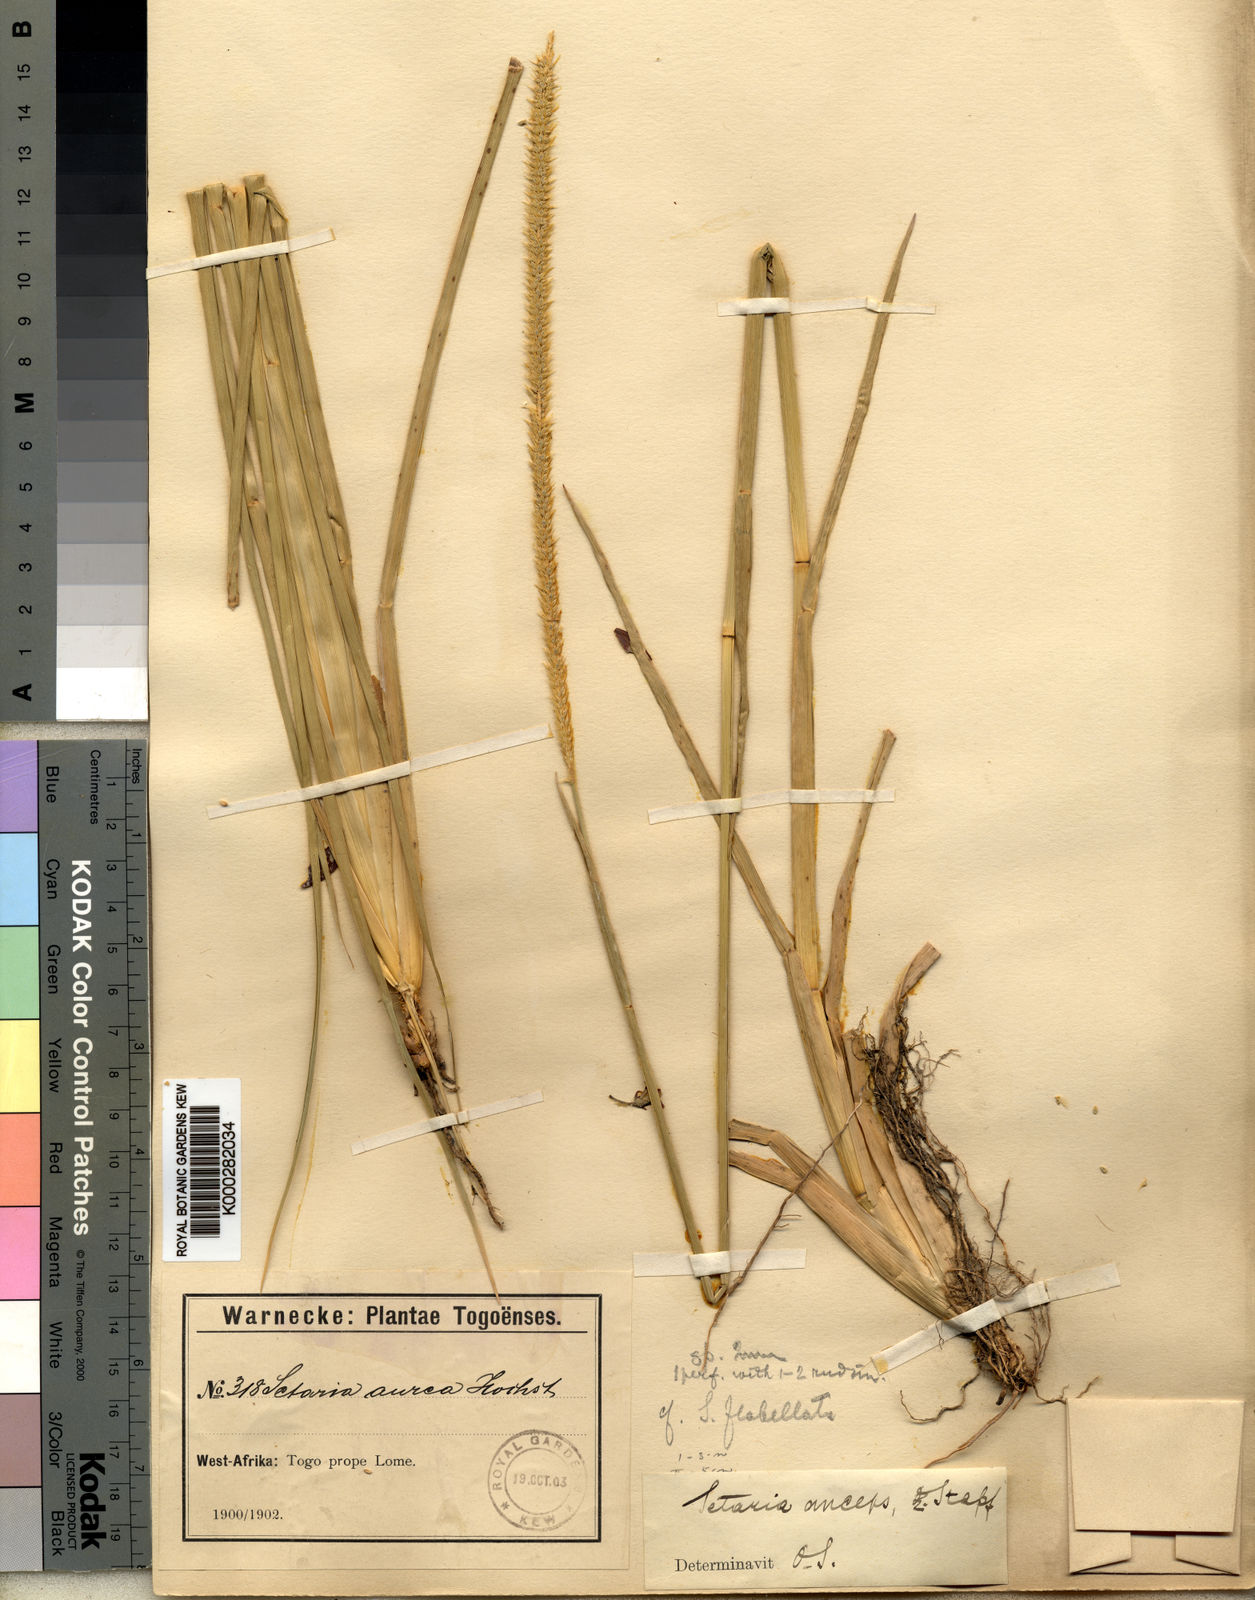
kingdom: Plantae
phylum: Tracheophyta
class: Liliopsida
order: Poales
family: Poaceae
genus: Setaria
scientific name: Setaria sphacelata
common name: African bristlegrass
